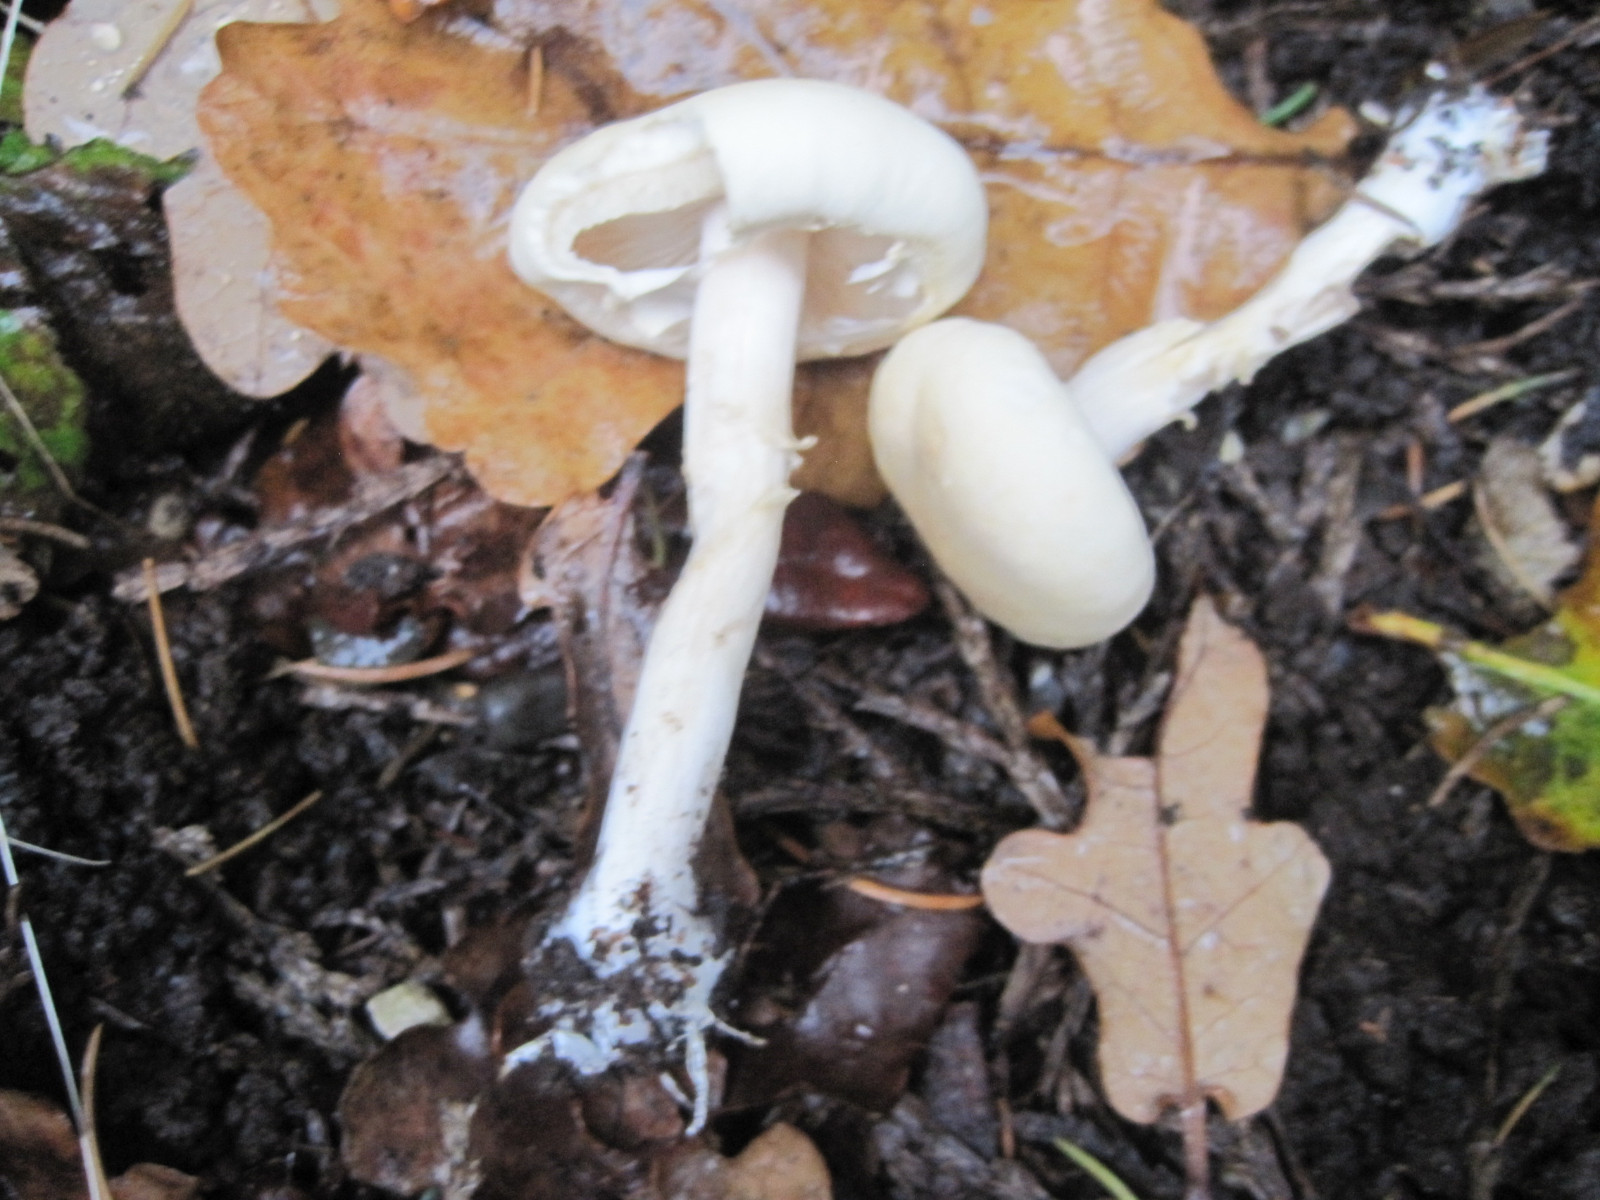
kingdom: Fungi
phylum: Basidiomycota
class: Agaricomycetes
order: Agaricales
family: Strophariaceae
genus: Agrocybe
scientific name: Agrocybe praecox
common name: tidlig agerhat
